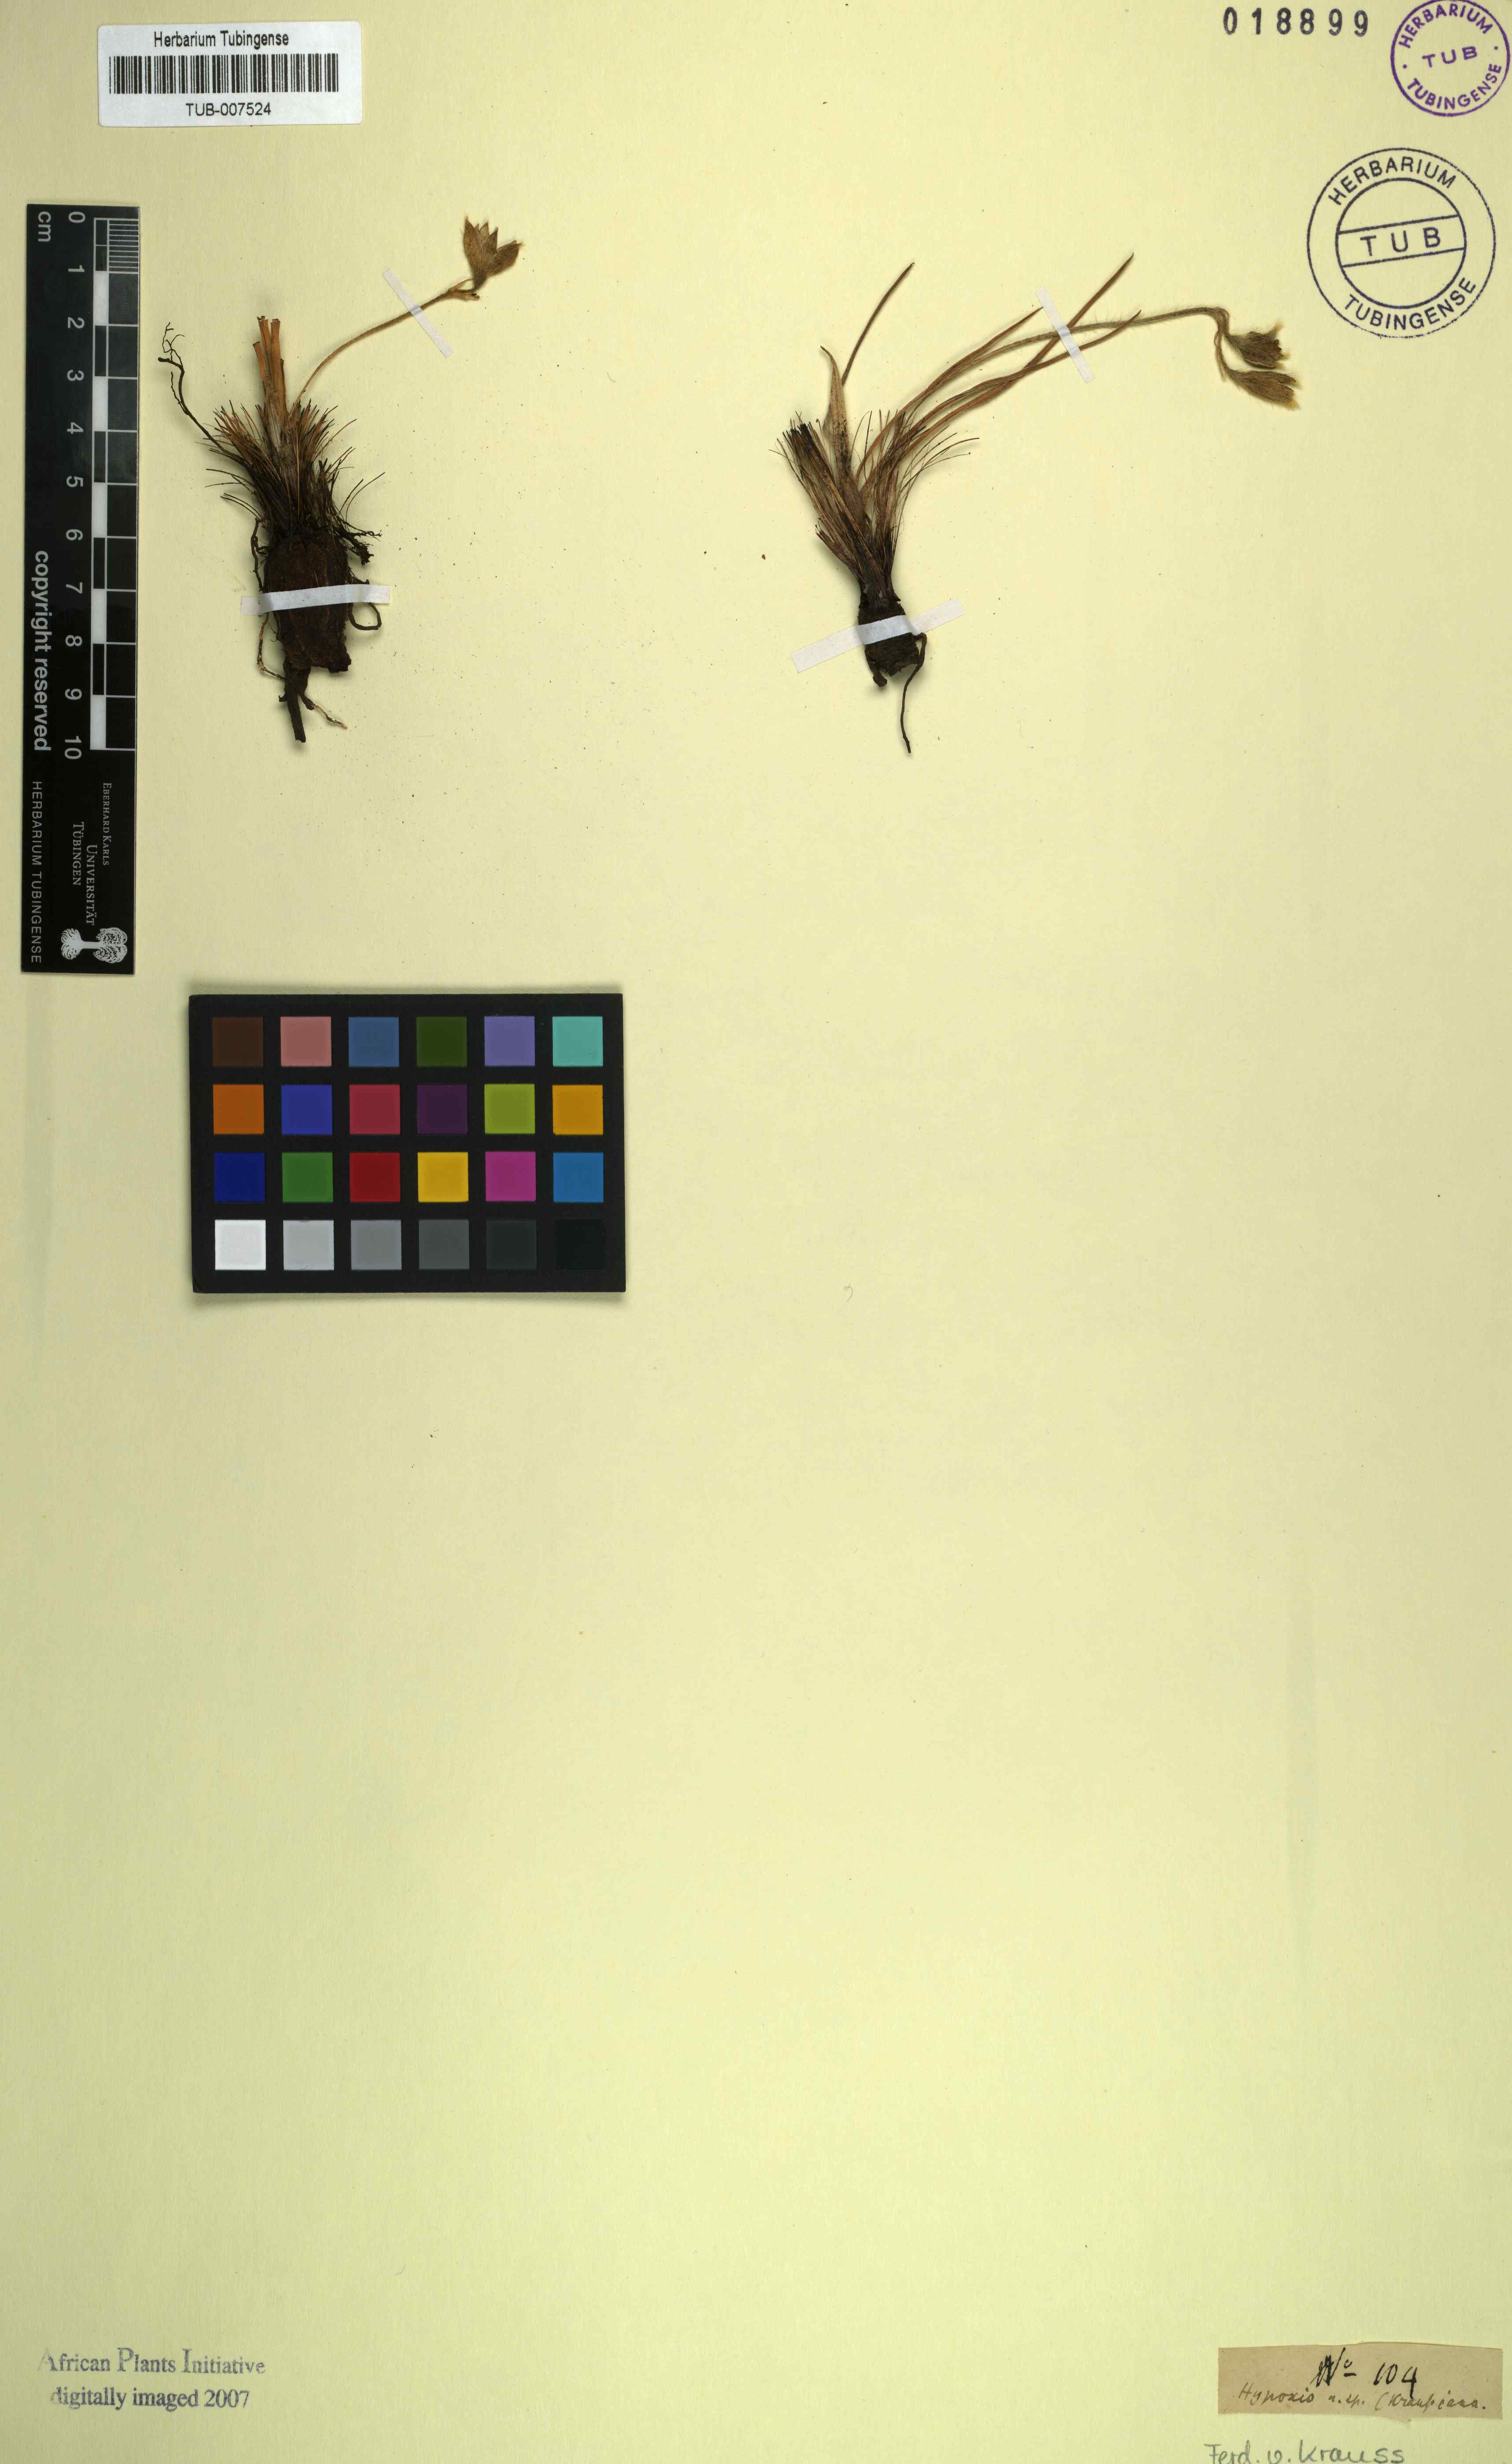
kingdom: Plantae
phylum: Tracheophyta
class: Liliopsida
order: Asparagales
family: Hypoxidaceae
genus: Hypoxis
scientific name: Hypoxis
